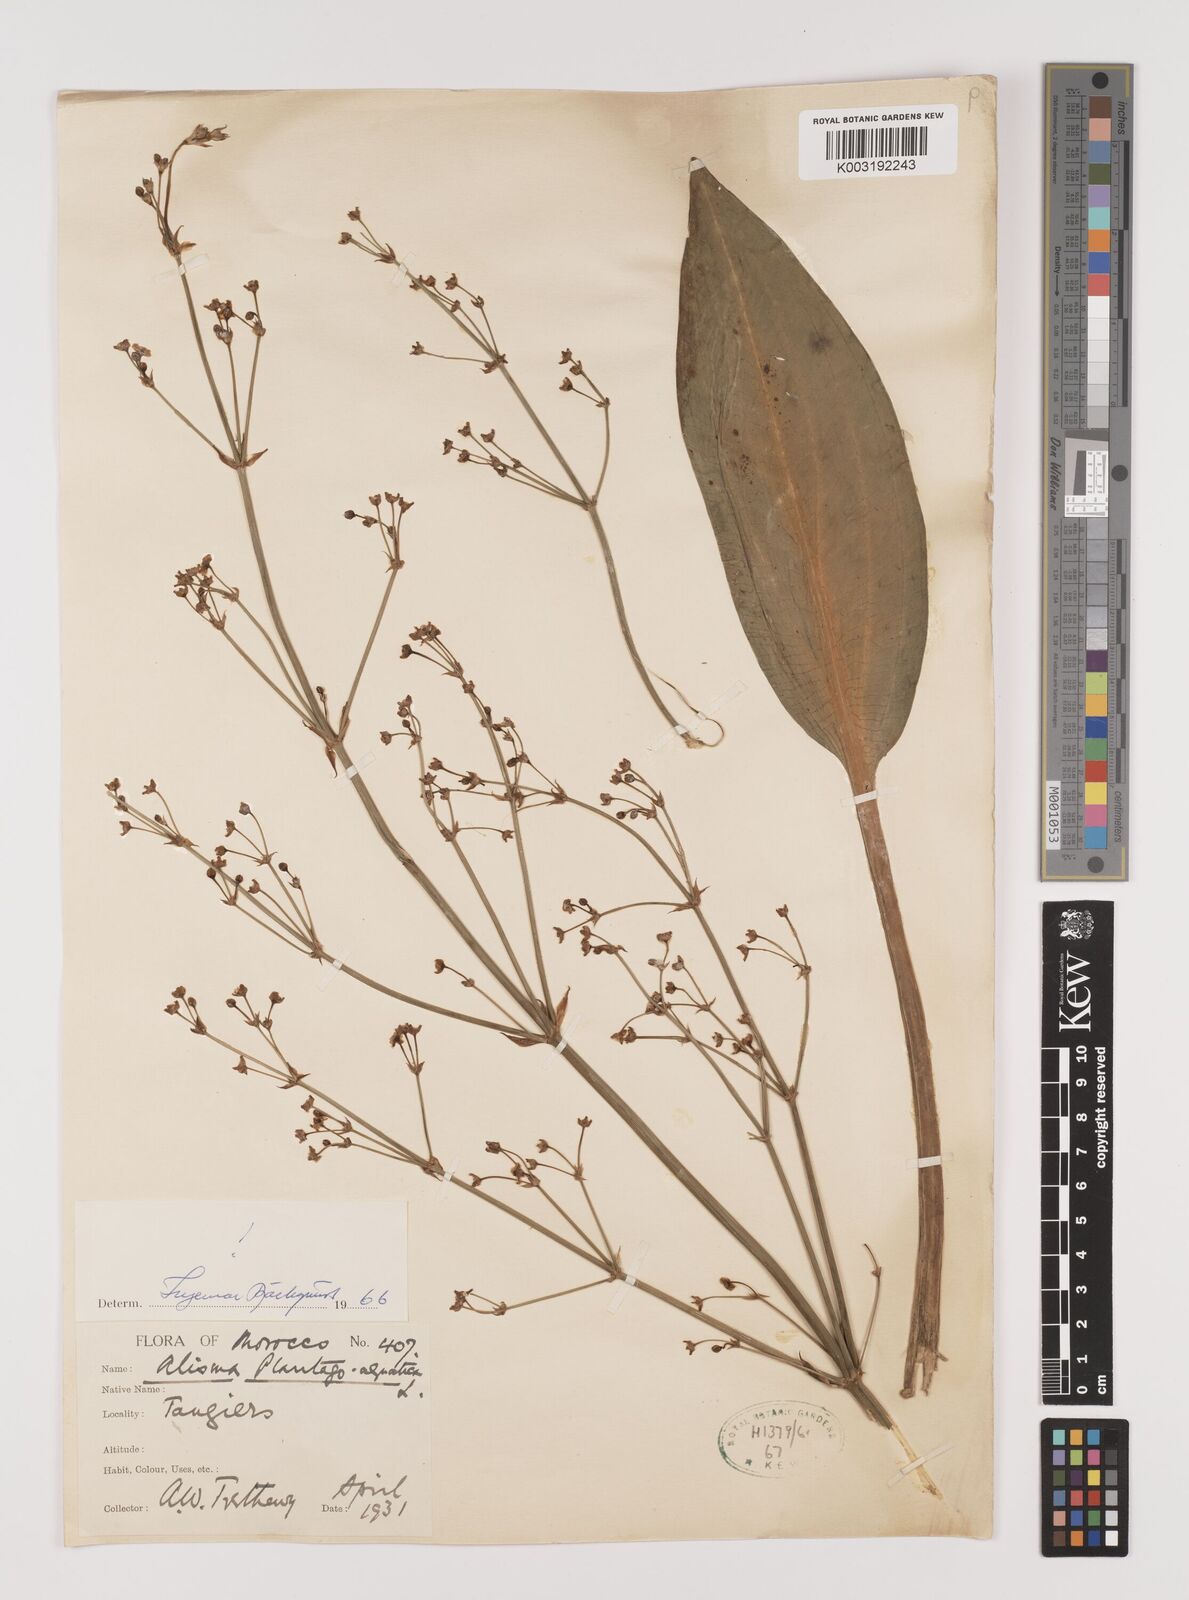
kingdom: Plantae
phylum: Tracheophyta
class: Liliopsida
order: Alismatales
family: Alismataceae
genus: Alisma
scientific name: Alisma plantago-aquatica
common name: Water-plantain
